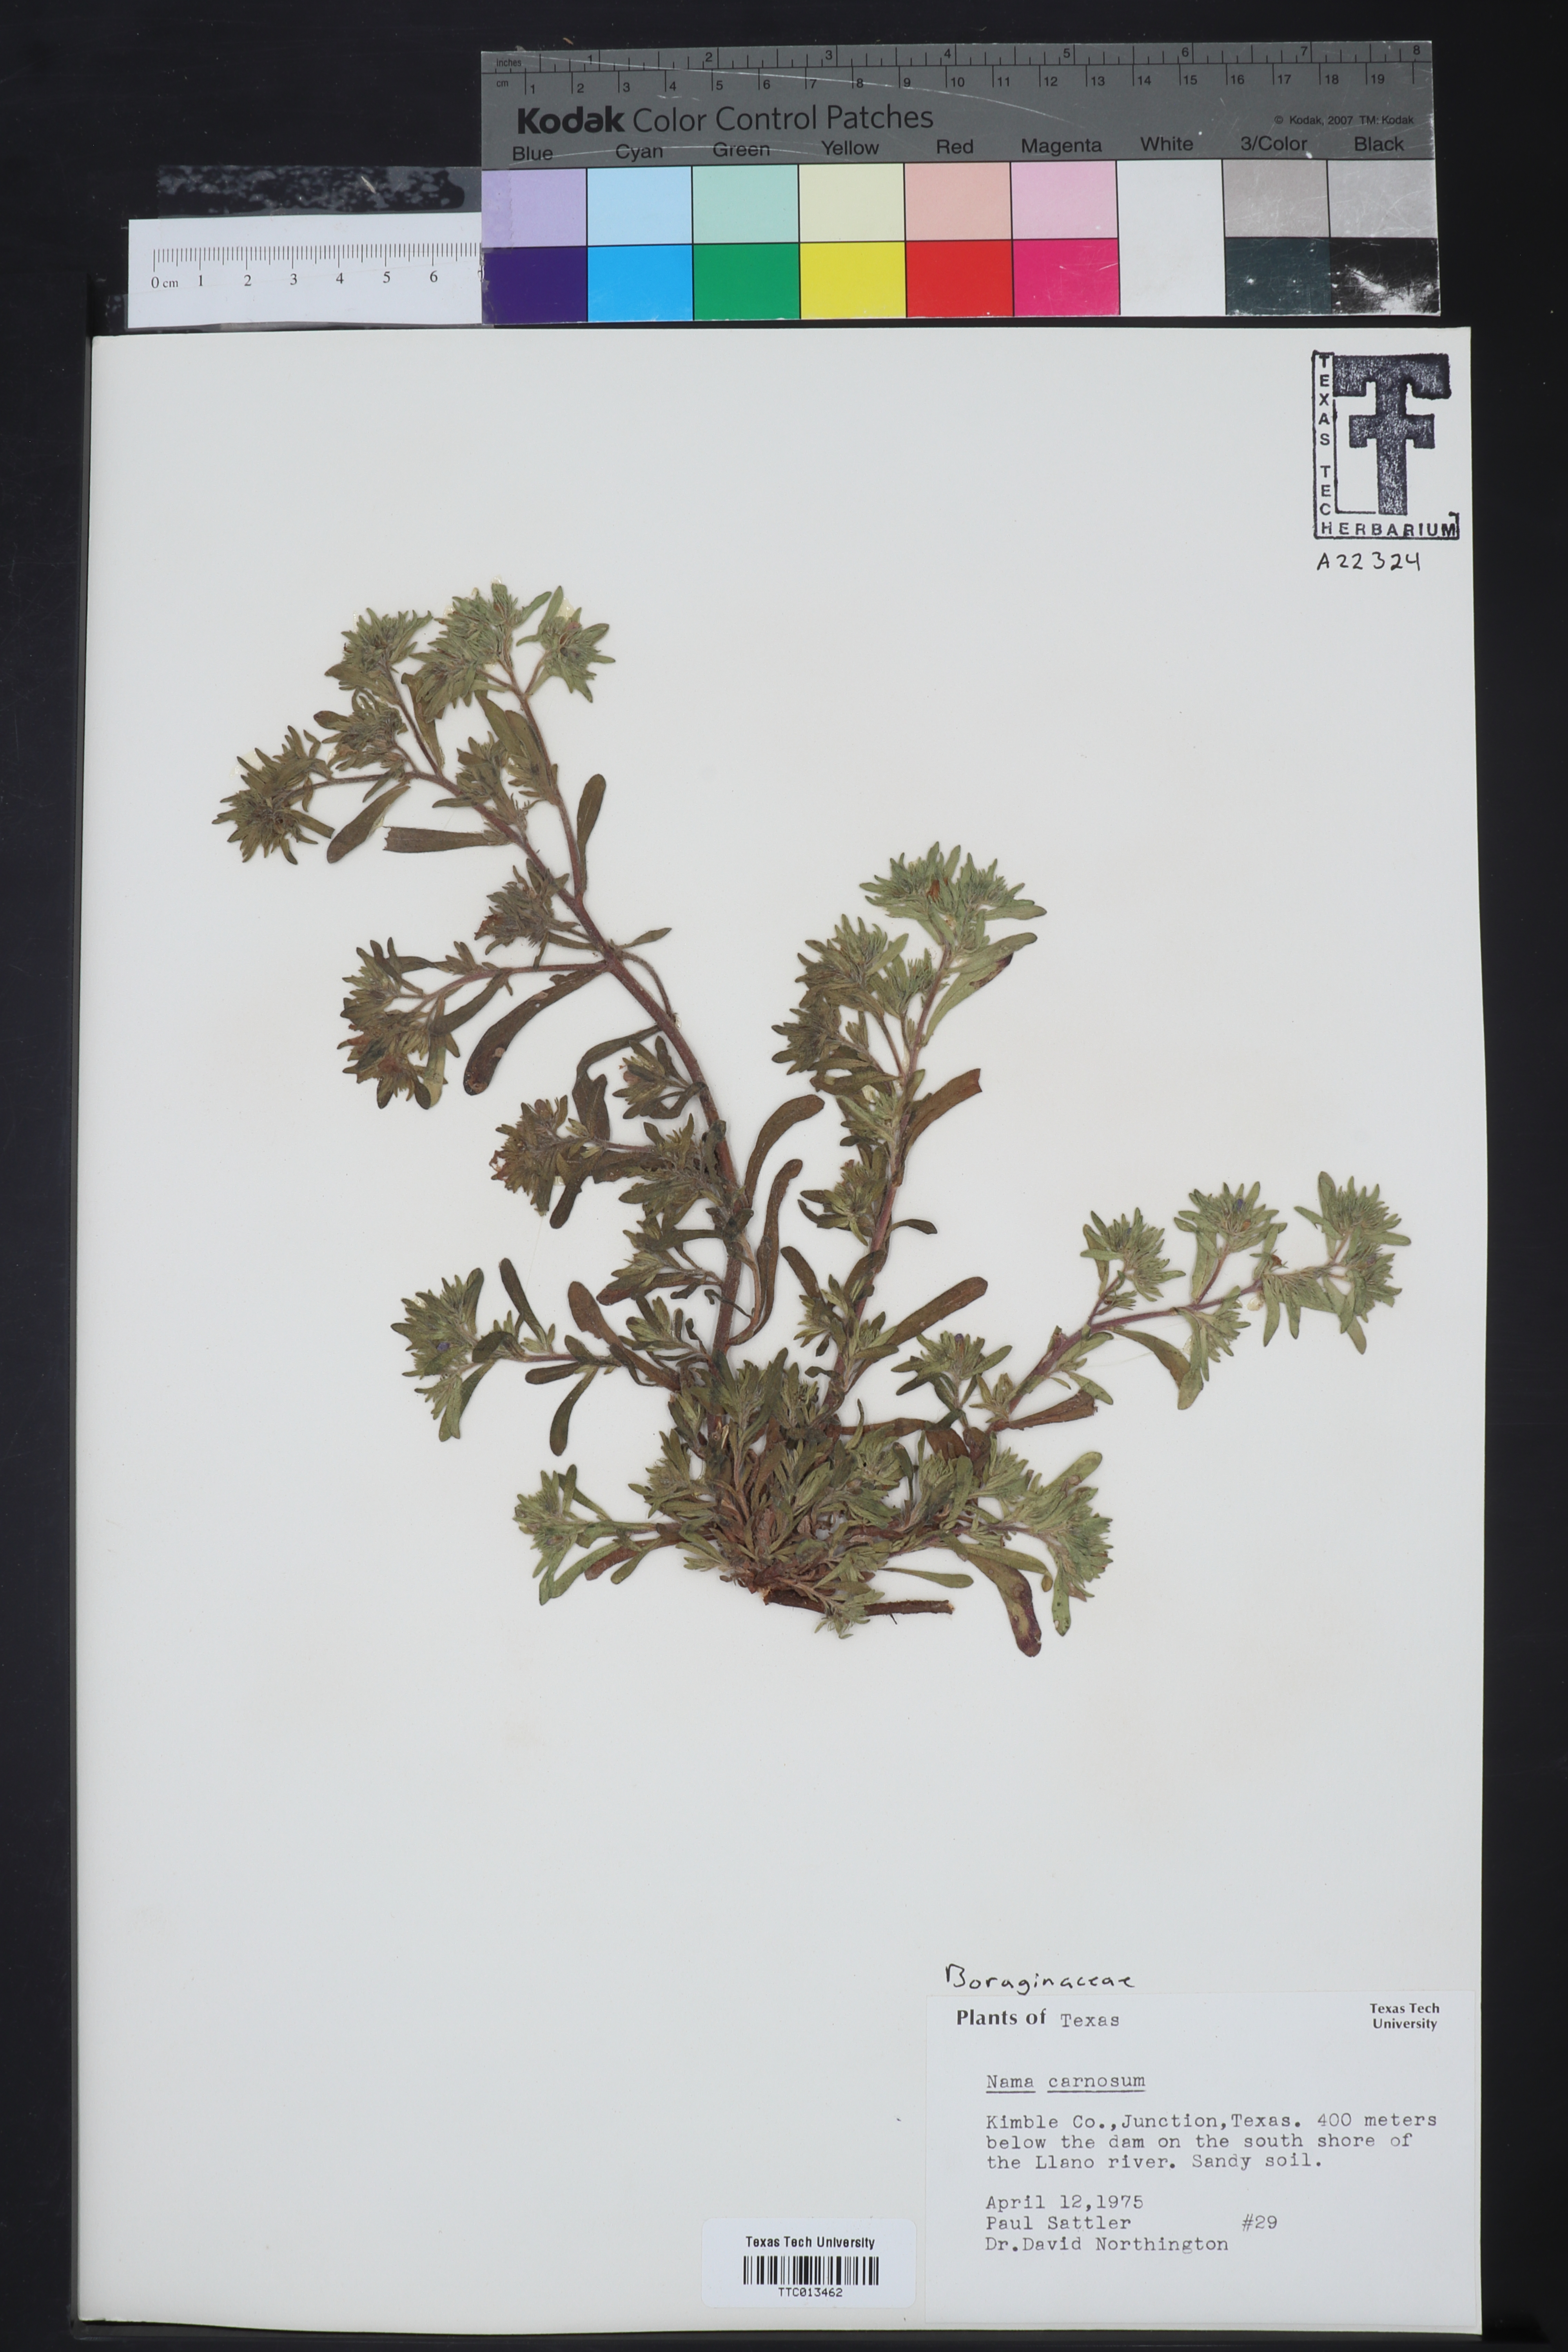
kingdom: Plantae
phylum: Tracheophyta
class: Magnoliopsida
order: Boraginales
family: Namaceae
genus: Andropus
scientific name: Andropus carnosus
